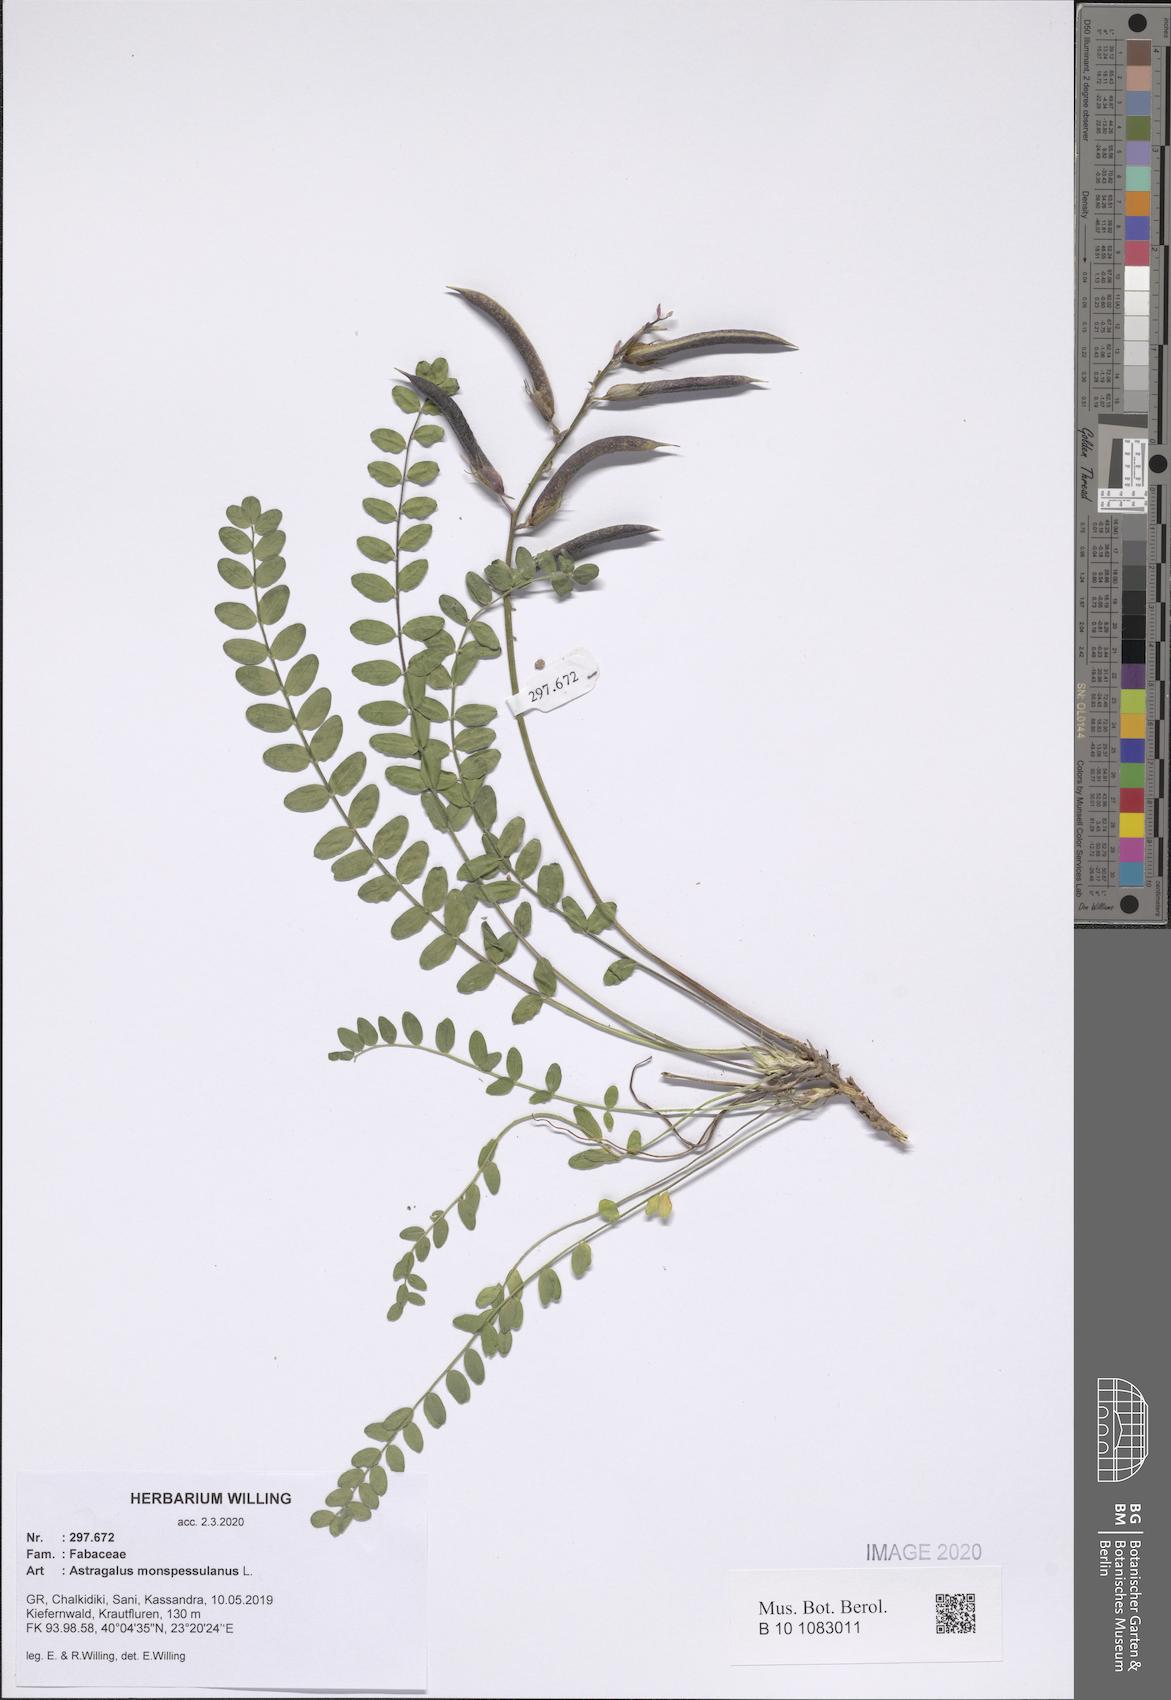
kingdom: Plantae
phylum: Tracheophyta
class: Magnoliopsida
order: Fabales
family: Fabaceae
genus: Astragalus
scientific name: Astragalus monspessulanus
